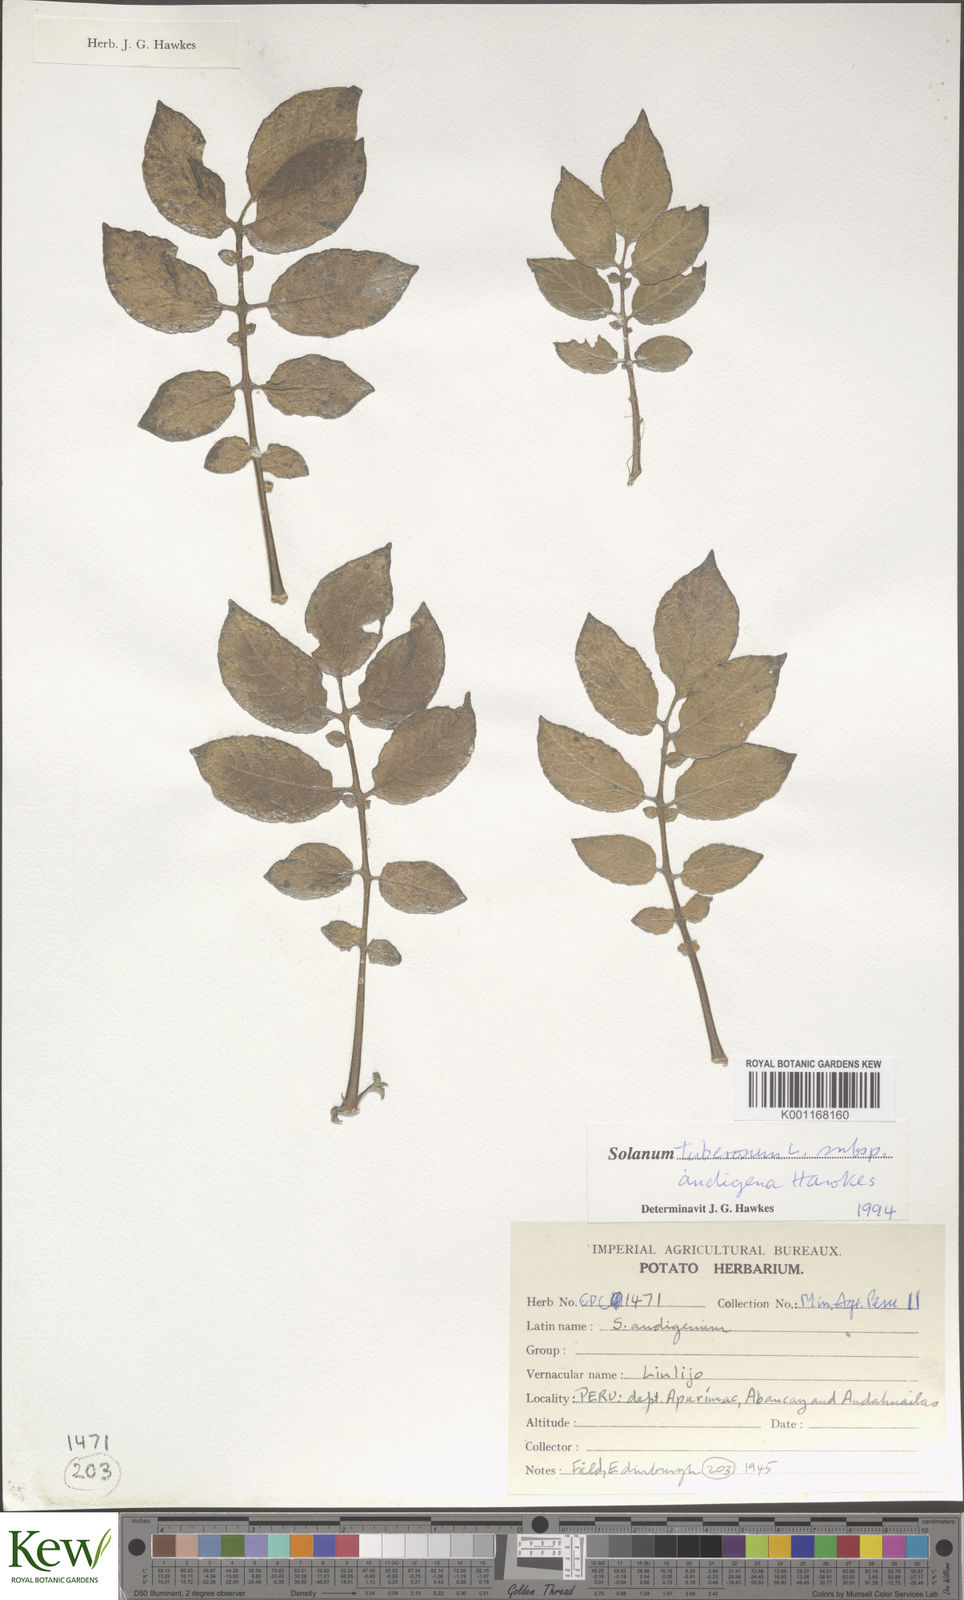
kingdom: Plantae
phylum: Tracheophyta
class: Magnoliopsida
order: Solanales
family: Solanaceae
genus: Solanum
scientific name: Solanum tuberosum
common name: Potato
